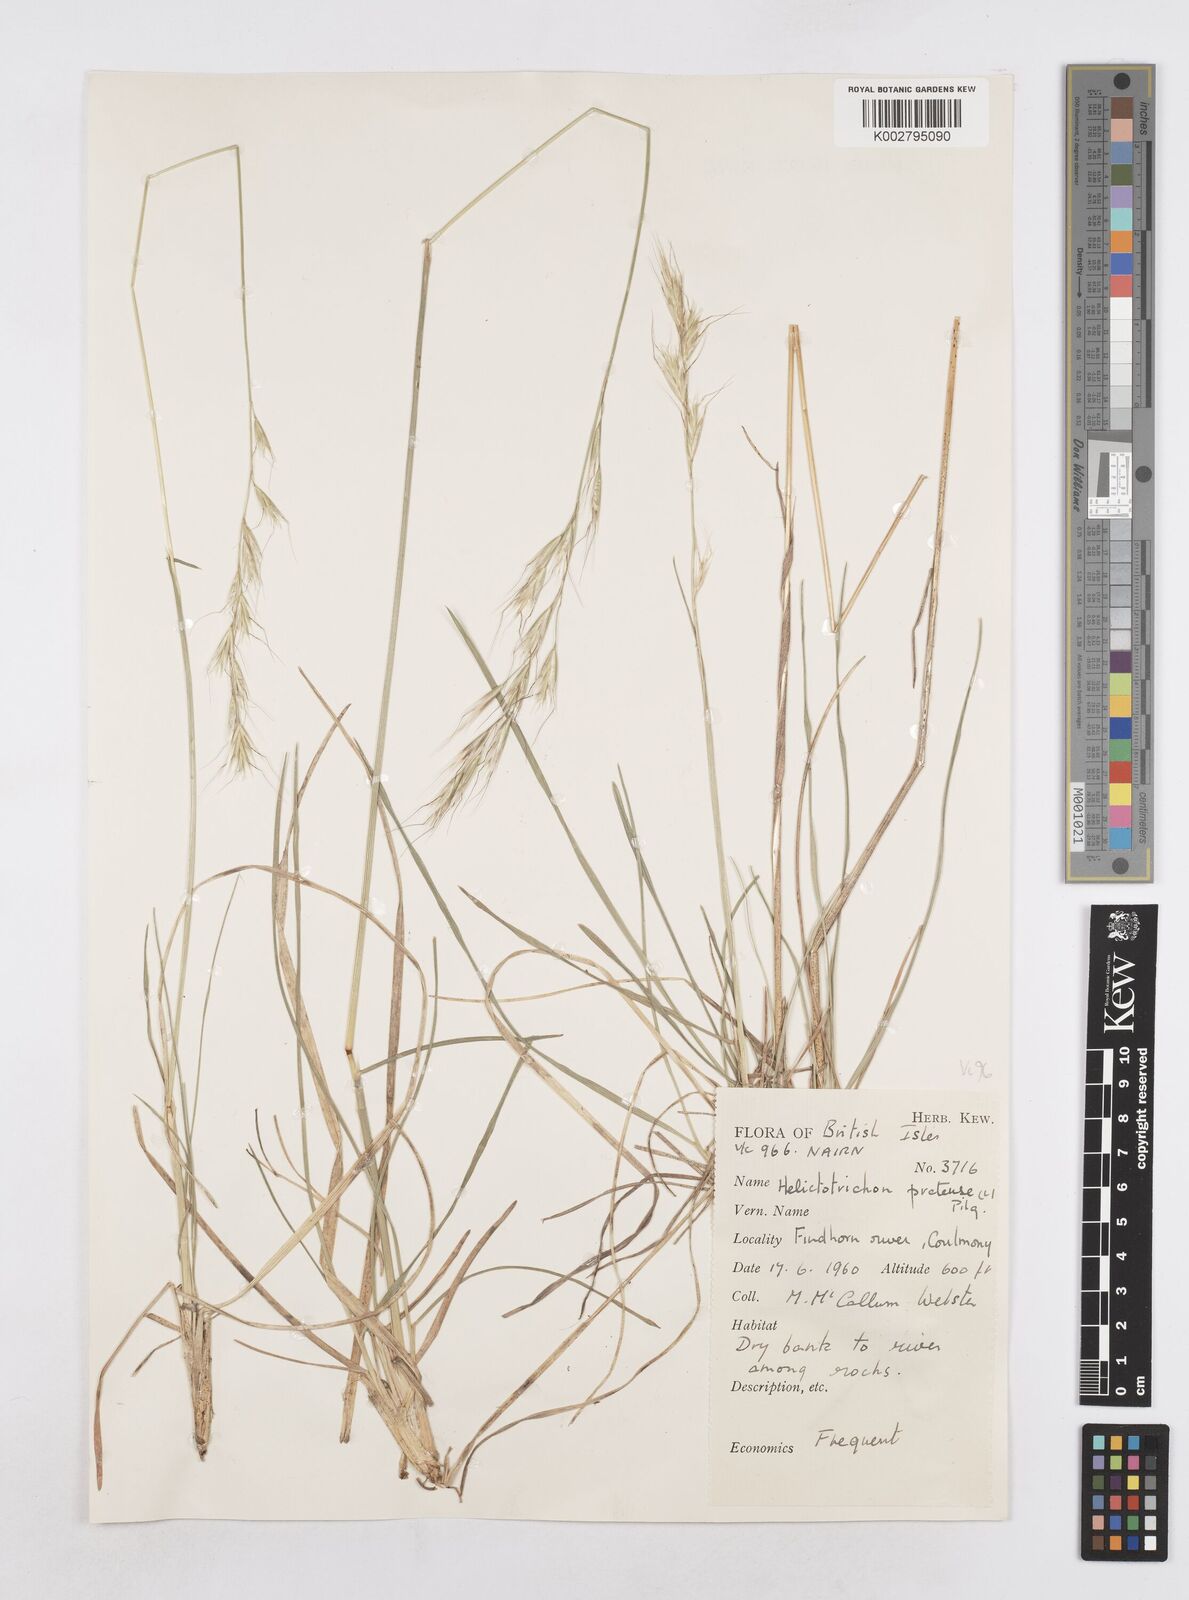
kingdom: Plantae
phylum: Tracheophyta
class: Liliopsida
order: Poales
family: Poaceae
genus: Helictochloa
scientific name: Helictochloa pratensis
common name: Meadow oat grass
